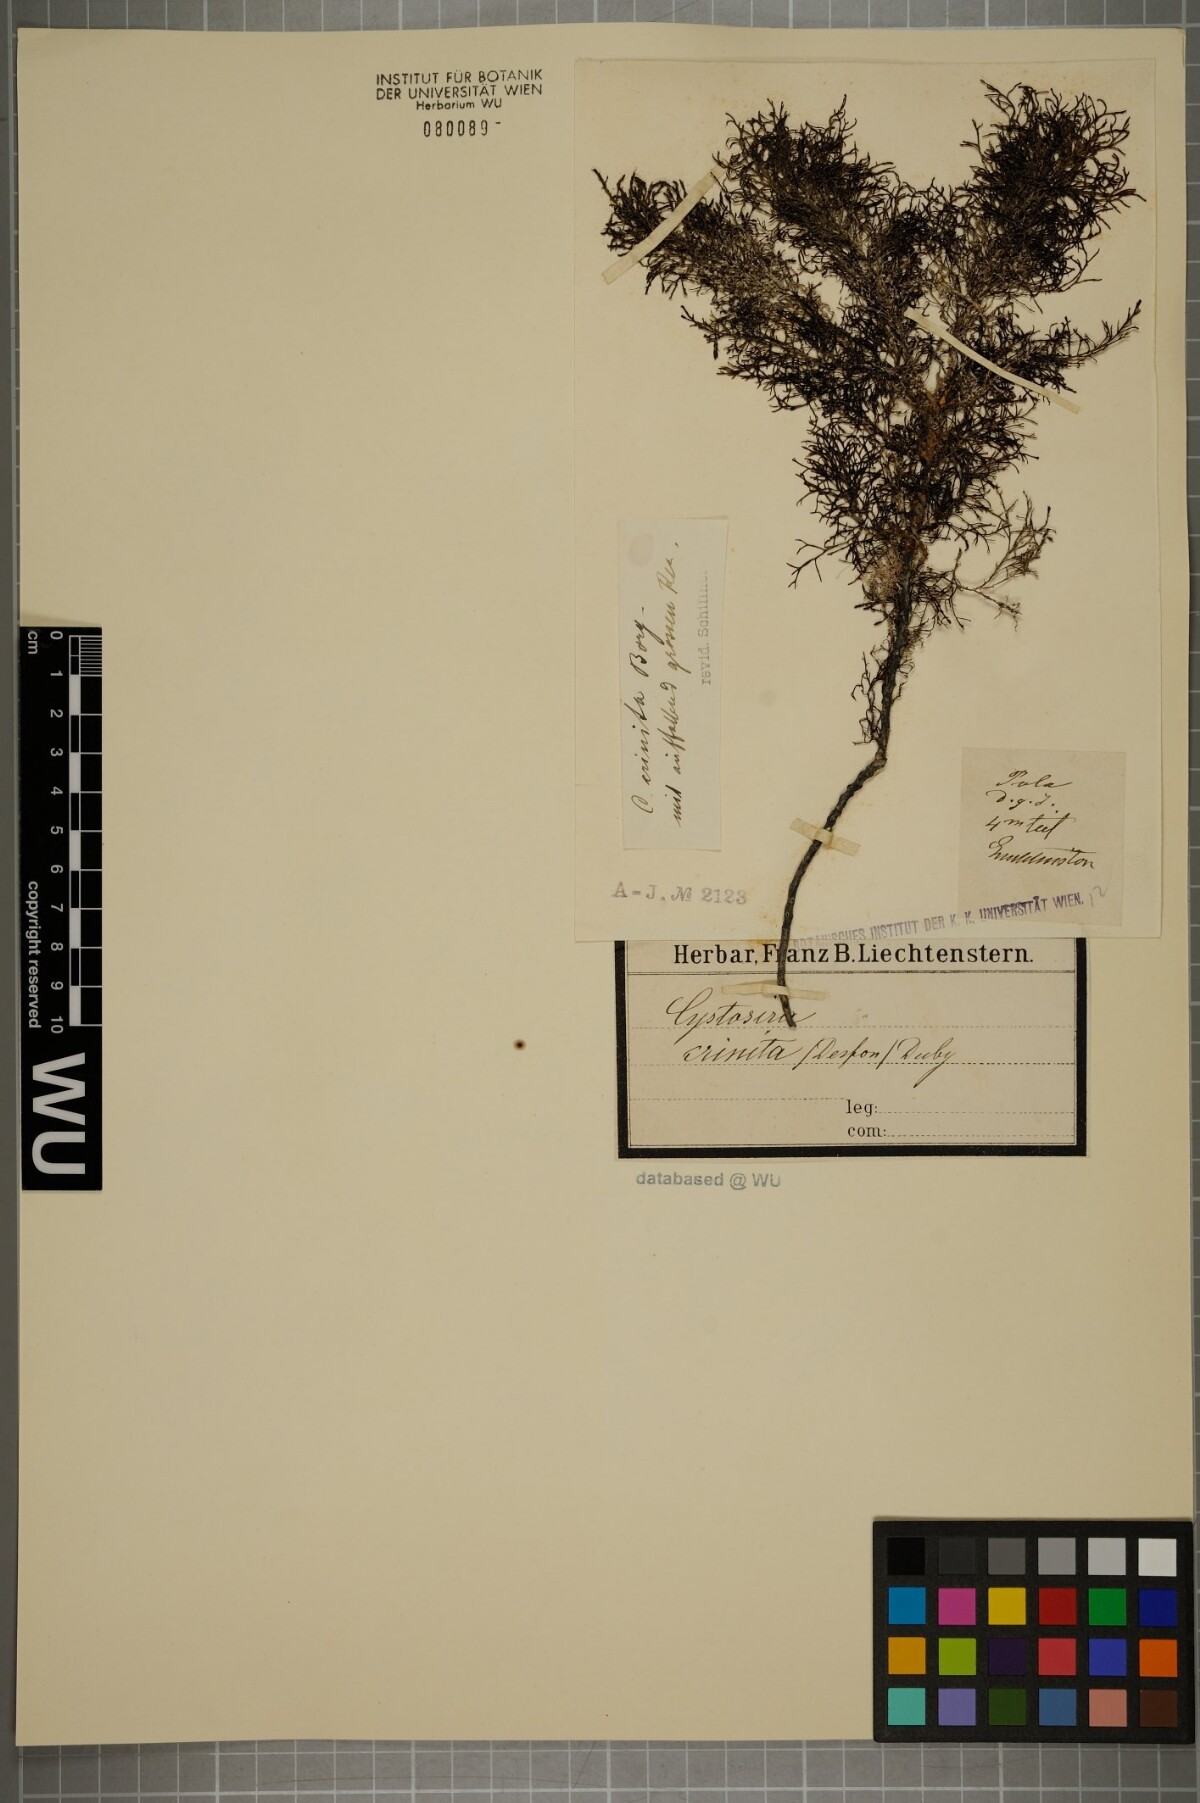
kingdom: Chromista
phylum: Ochrophyta
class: Phaeophyceae
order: Fucales
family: Sargassaceae
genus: Cystoseira
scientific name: Cystoseira Ericaria crinita
